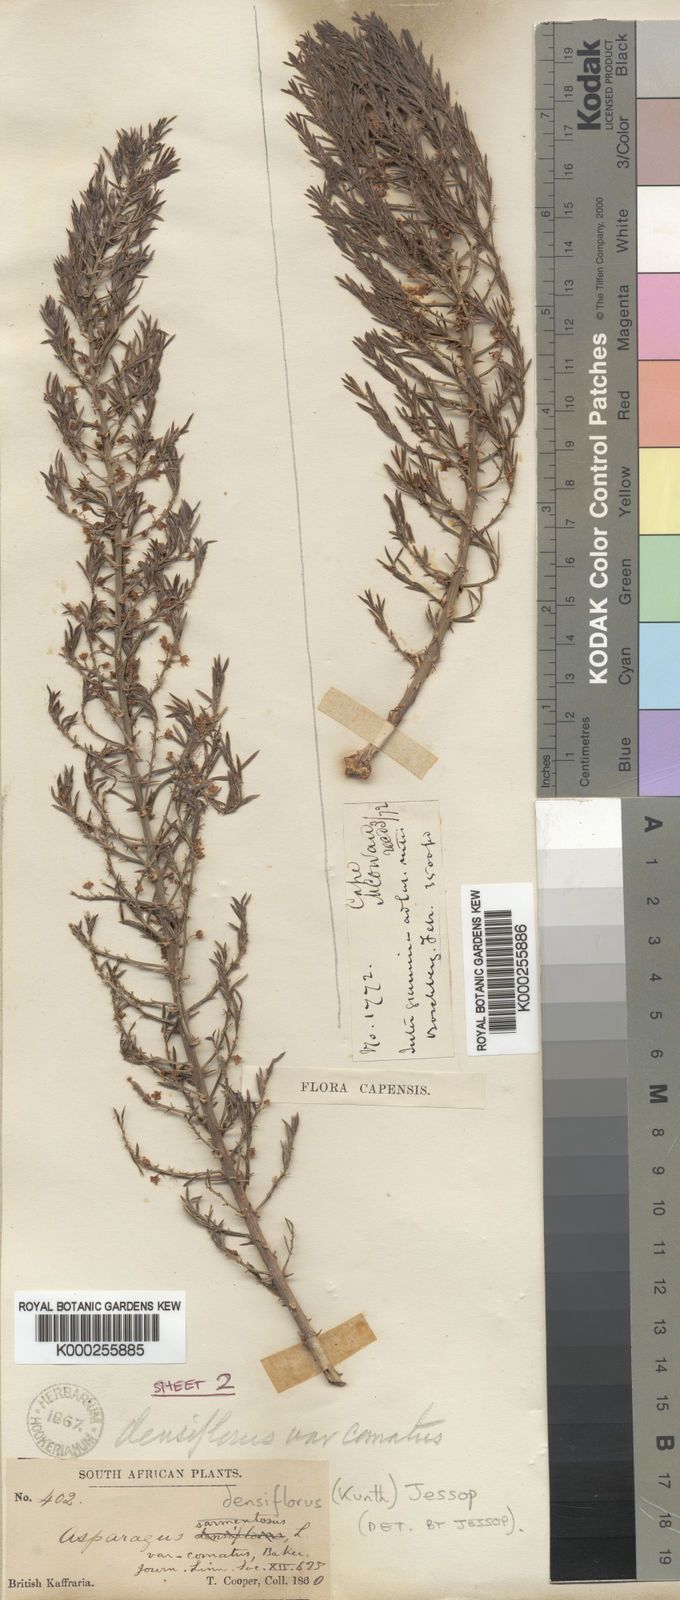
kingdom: Plantae
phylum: Tracheophyta
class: Liliopsida
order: Asparagales
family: Asparagaceae
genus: Asparagus
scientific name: Asparagus densiflorus
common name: Asparagus fern
